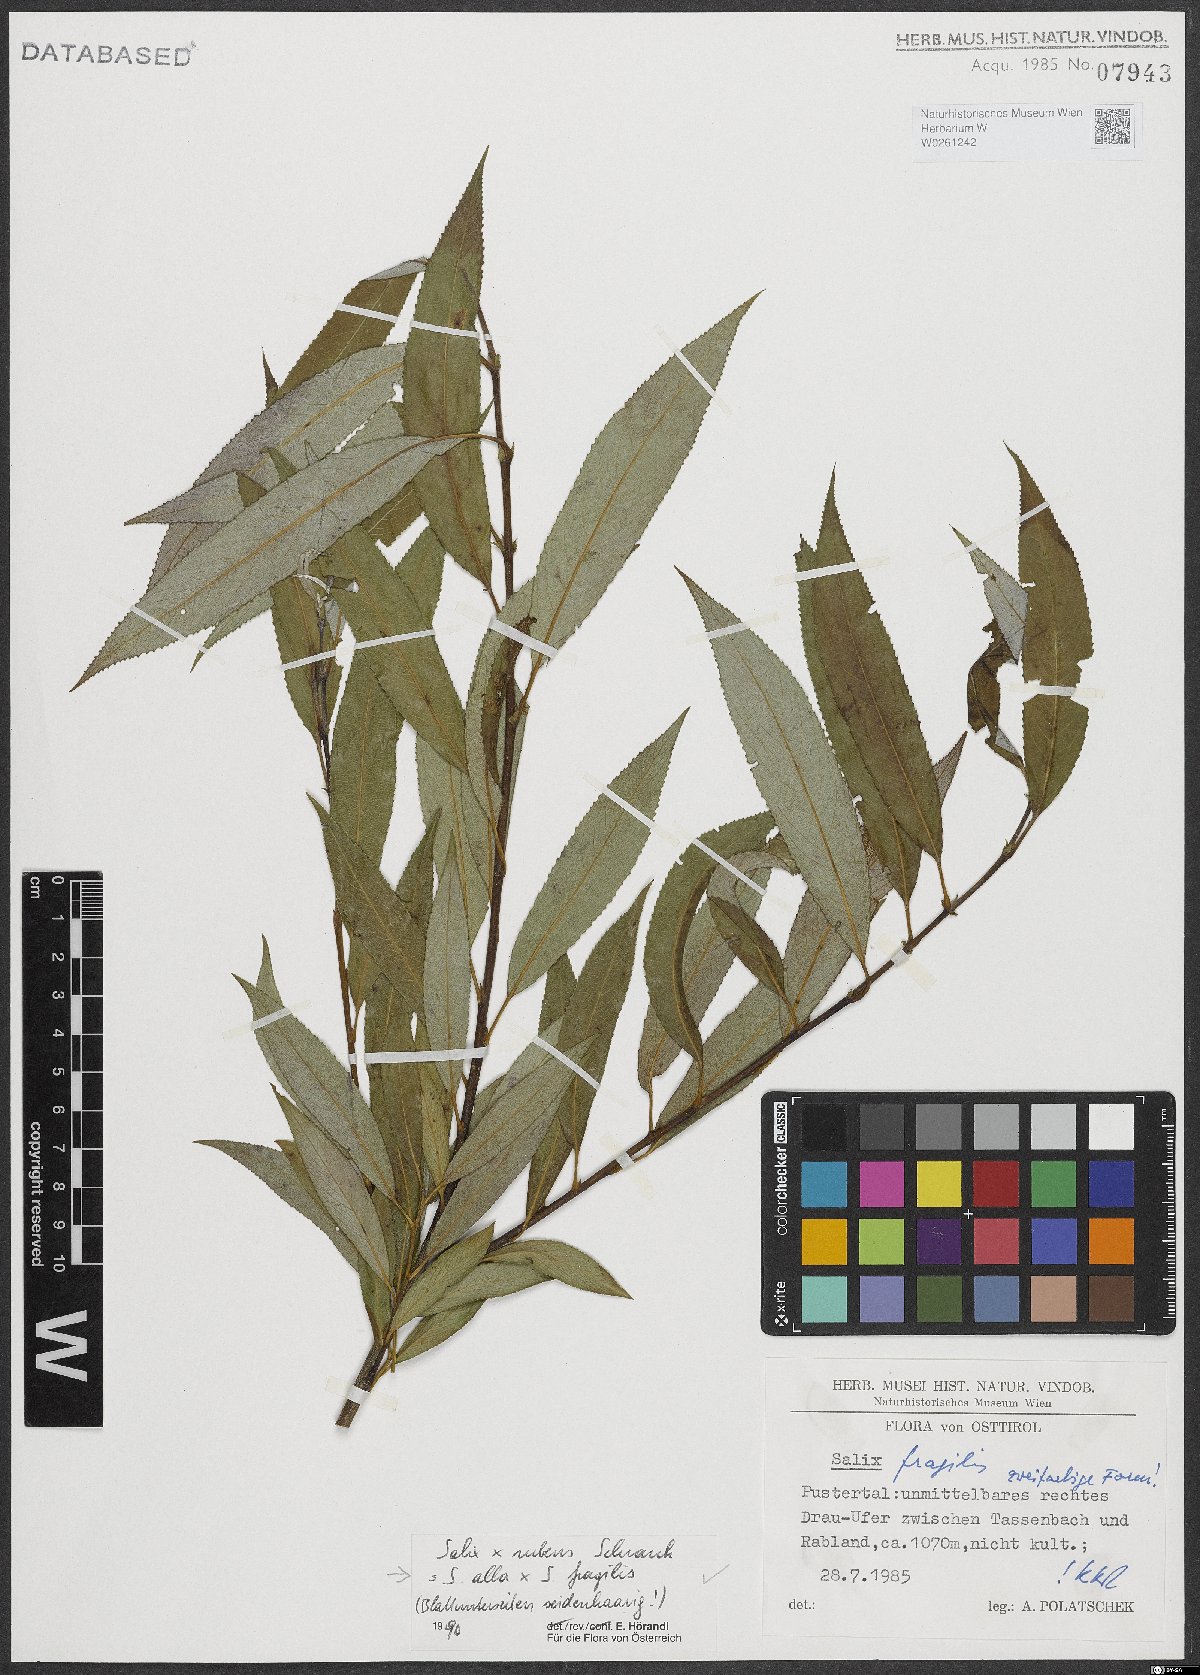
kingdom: Plantae
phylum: Tracheophyta
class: Magnoliopsida
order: Malpighiales
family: Salicaceae
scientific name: Salicaceae
